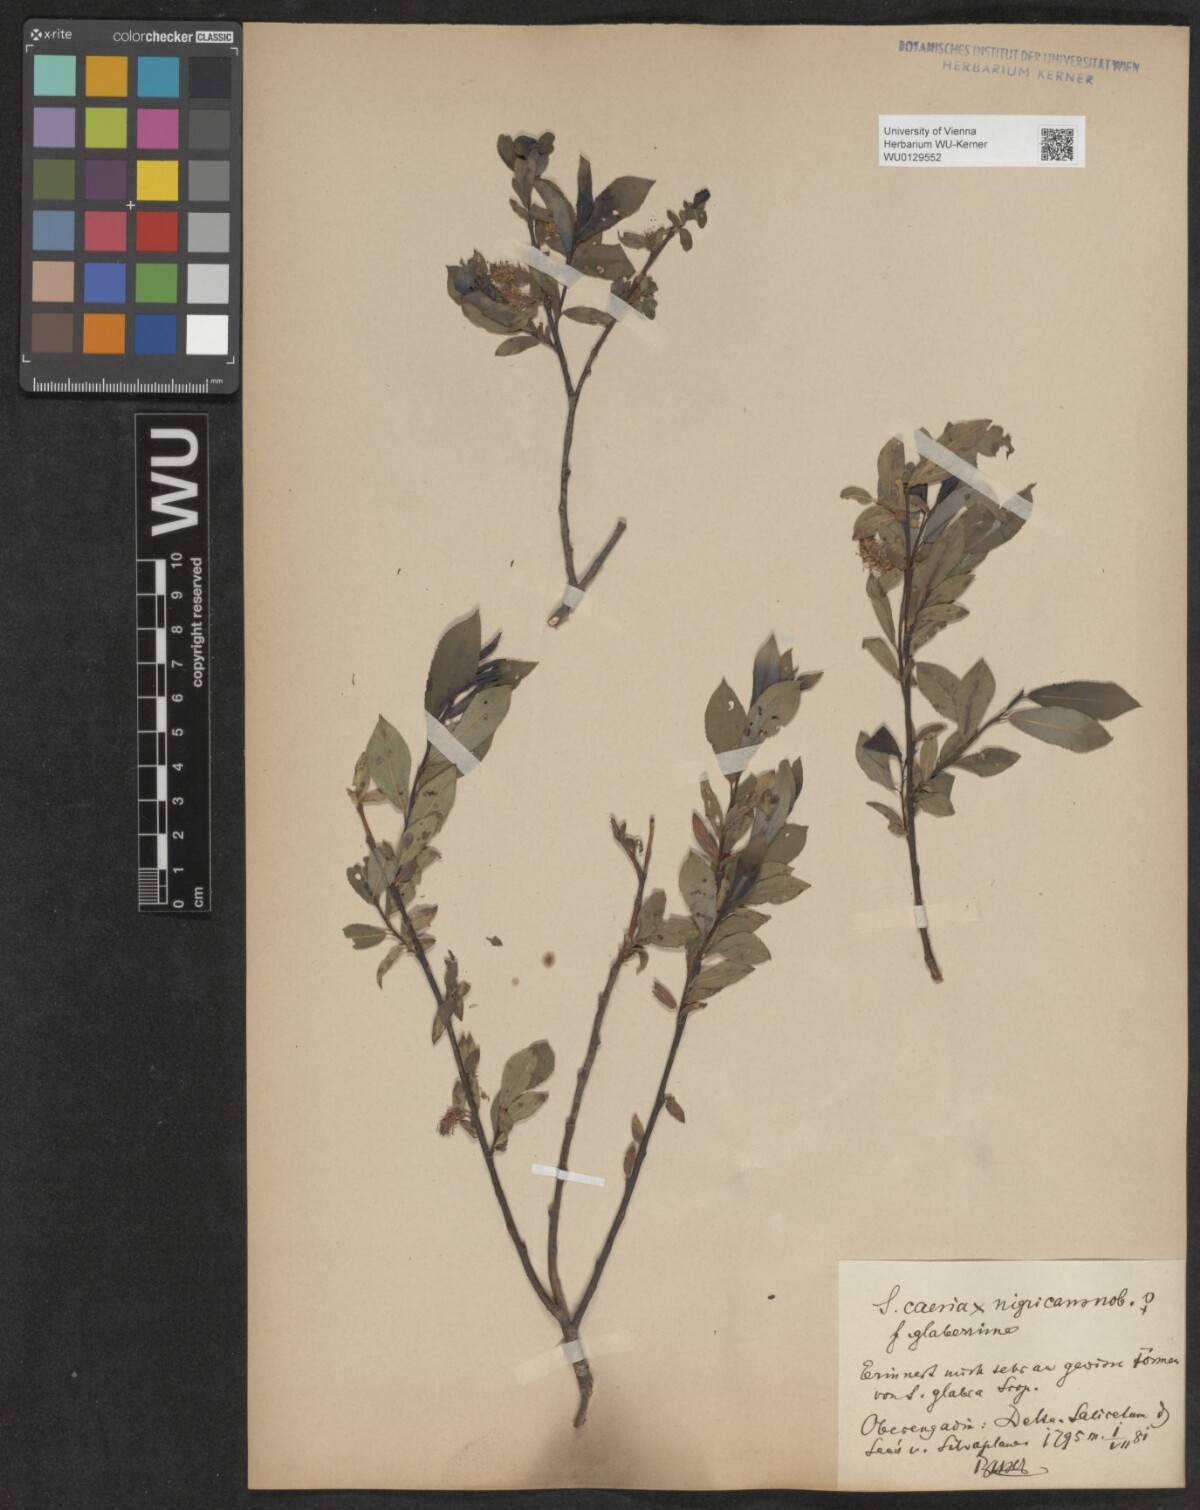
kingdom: Plantae
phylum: Tracheophyta
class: Magnoliopsida
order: Malpighiales
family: Salicaceae
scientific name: Salicaceae
